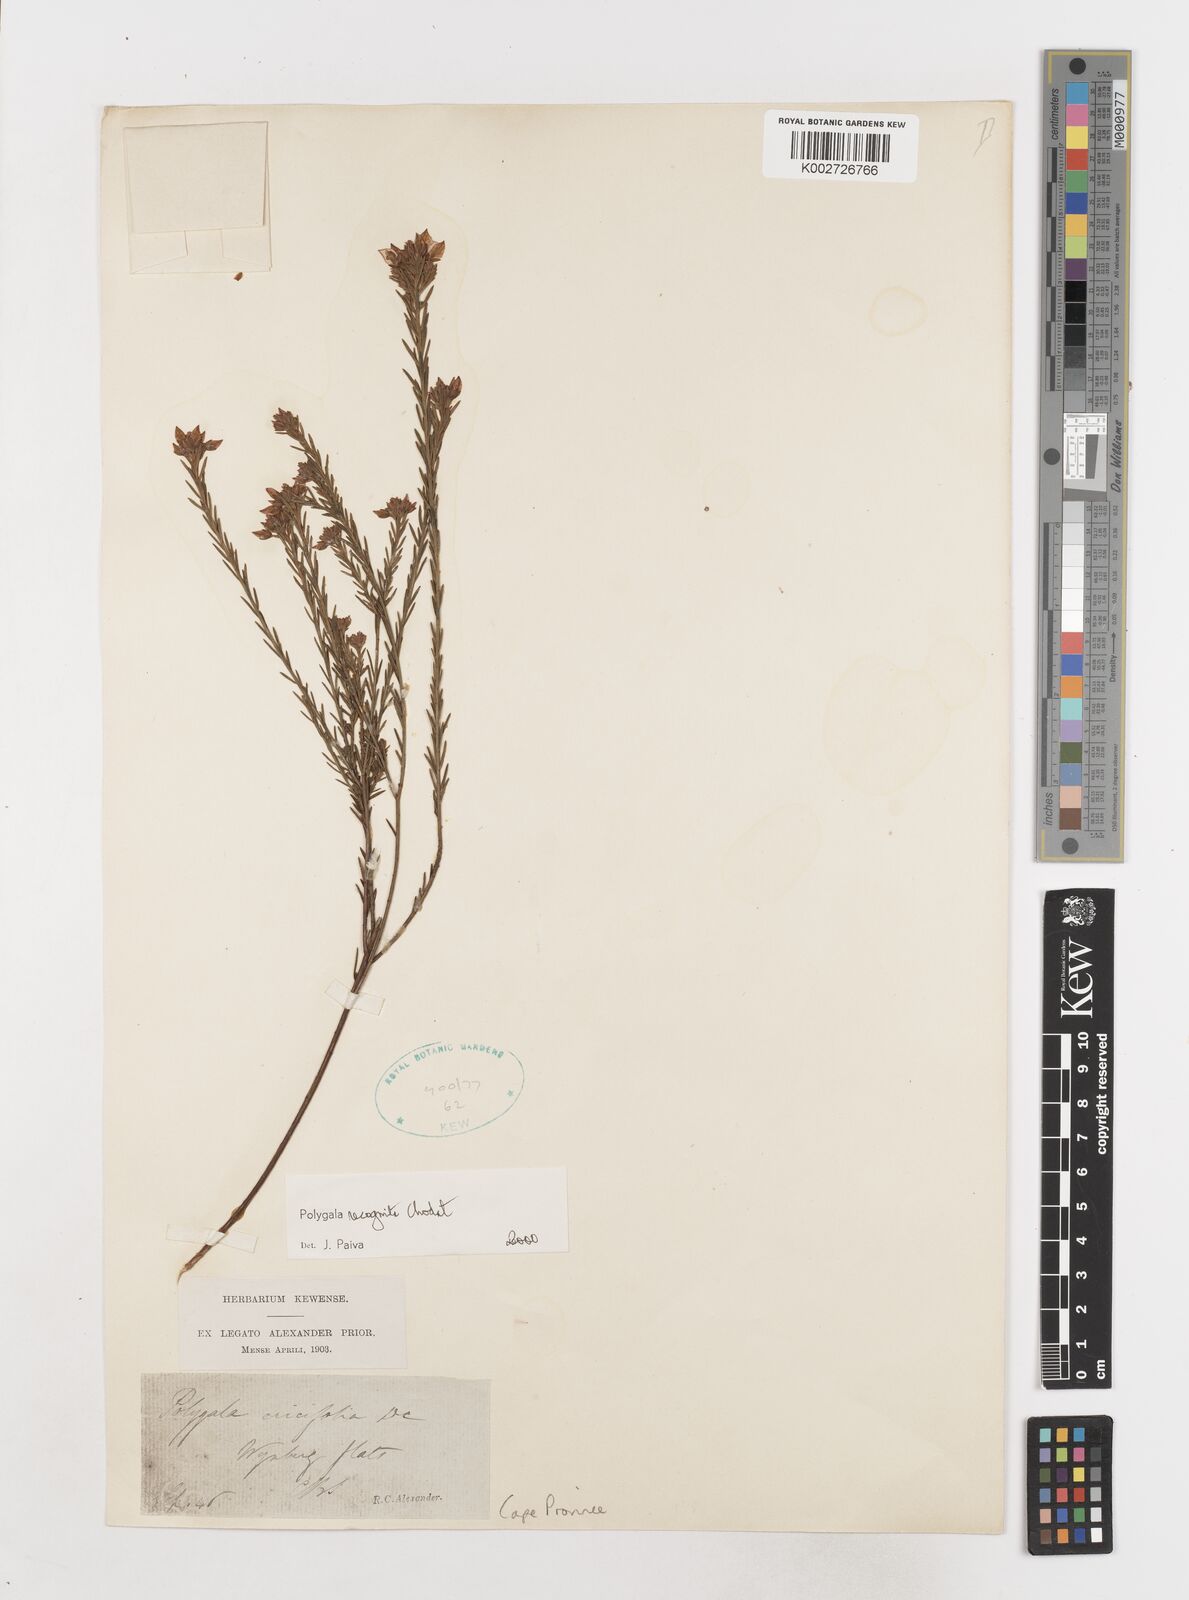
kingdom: Plantae
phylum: Tracheophyta
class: Magnoliopsida
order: Fabales
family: Polygalaceae
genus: Polygala
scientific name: Polygala recognita
